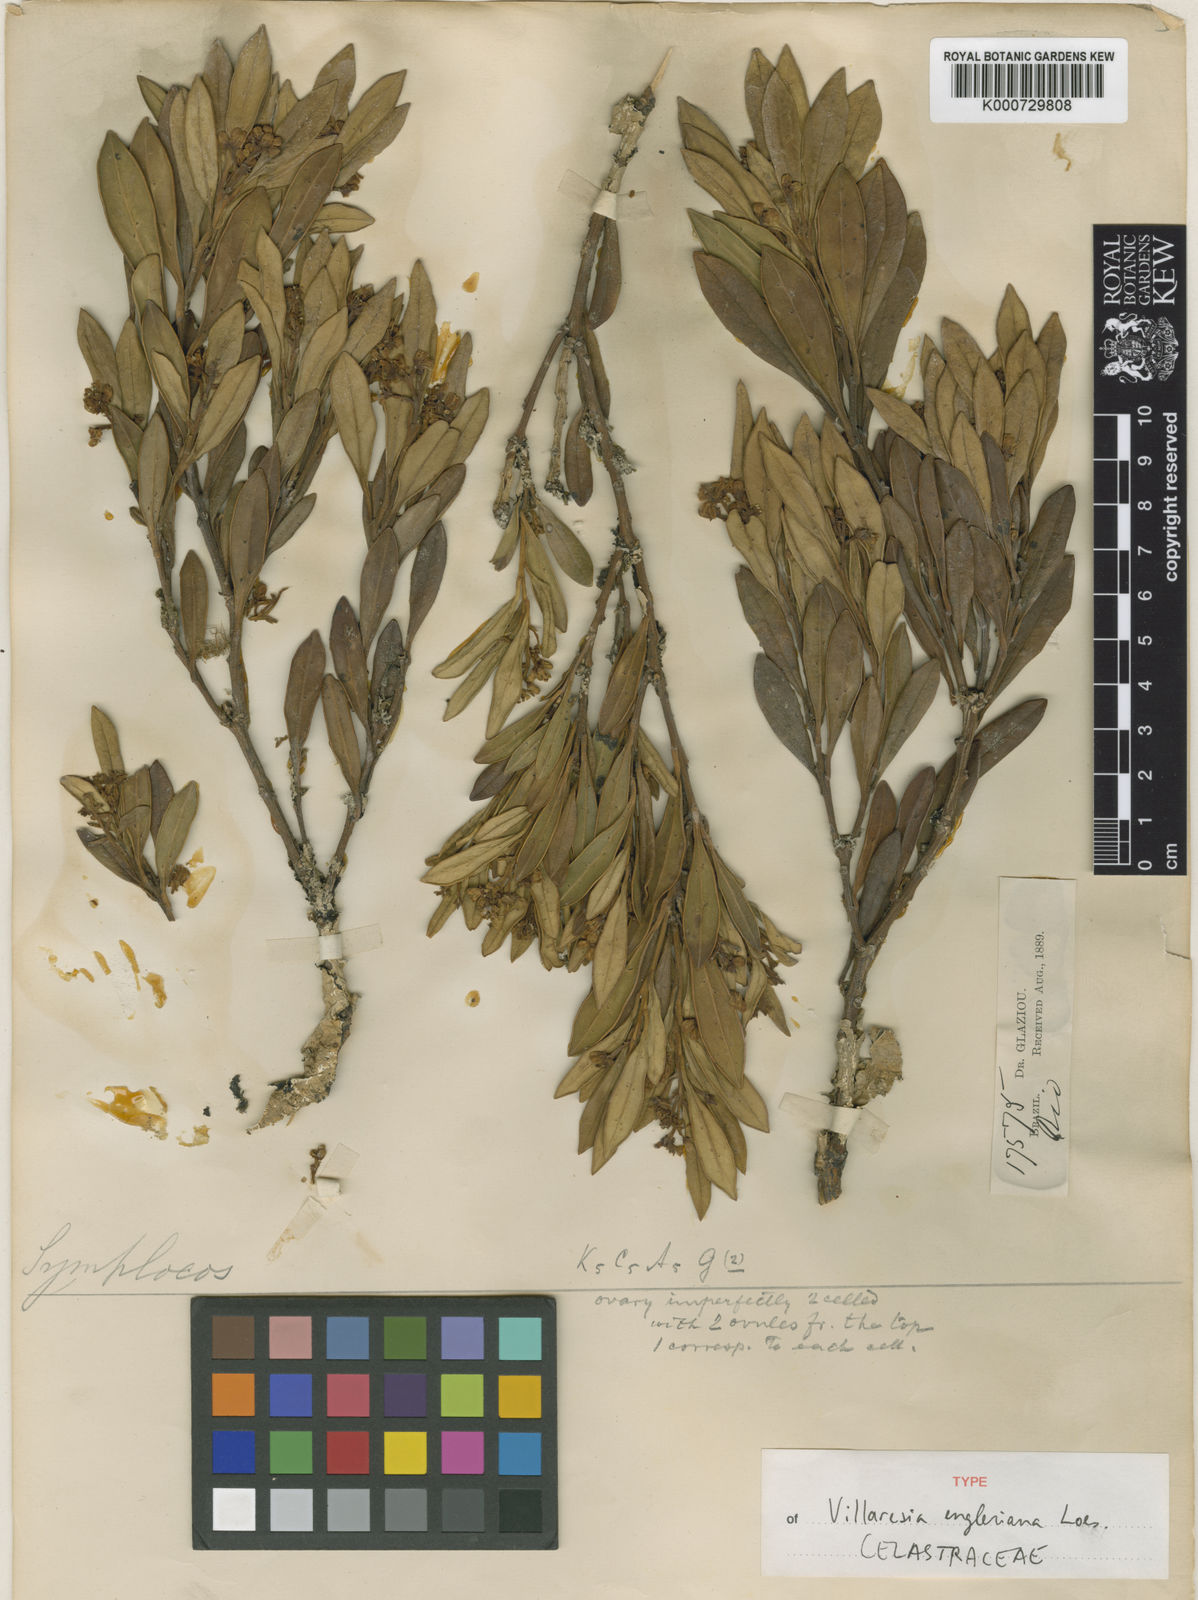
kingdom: Plantae
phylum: Tracheophyta
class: Magnoliopsida
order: Cardiopteridales
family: Cardiopteridaceae
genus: Citronella
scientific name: Citronella engleriana
